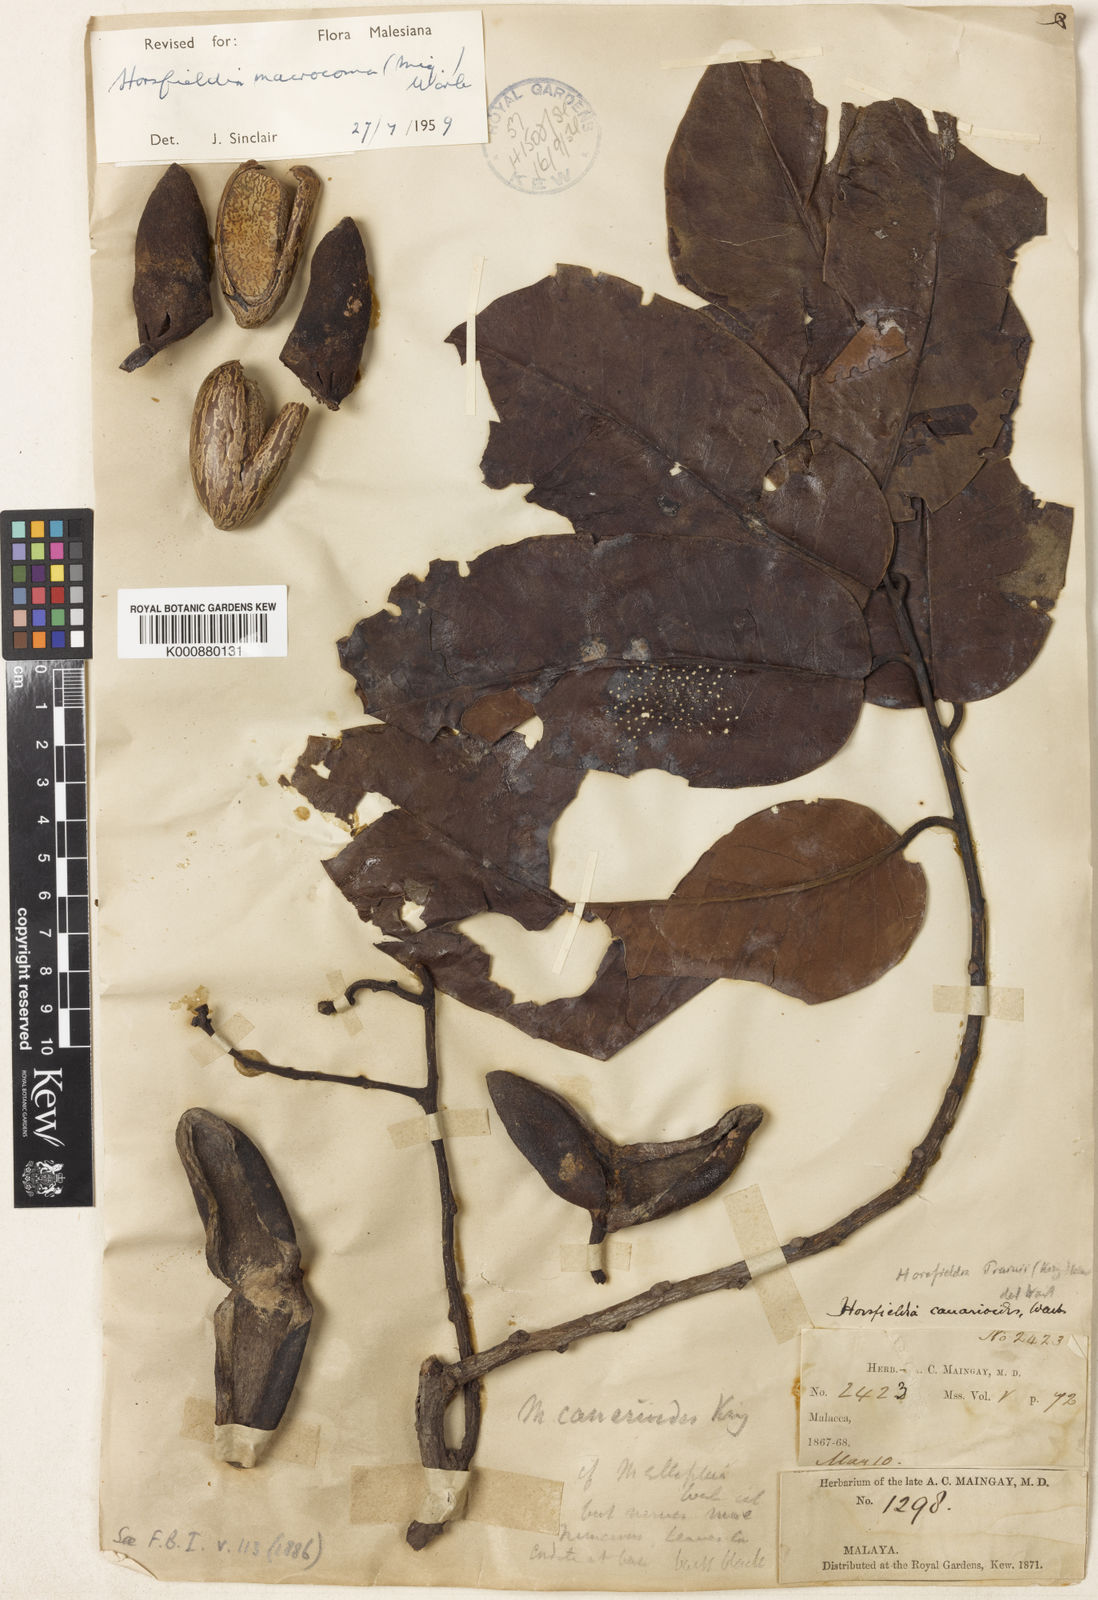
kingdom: Plantae
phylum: Tracheophyta
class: Magnoliopsida
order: Magnoliales
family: Myristicaceae
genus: Endocomia
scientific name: Endocomia canarioides
